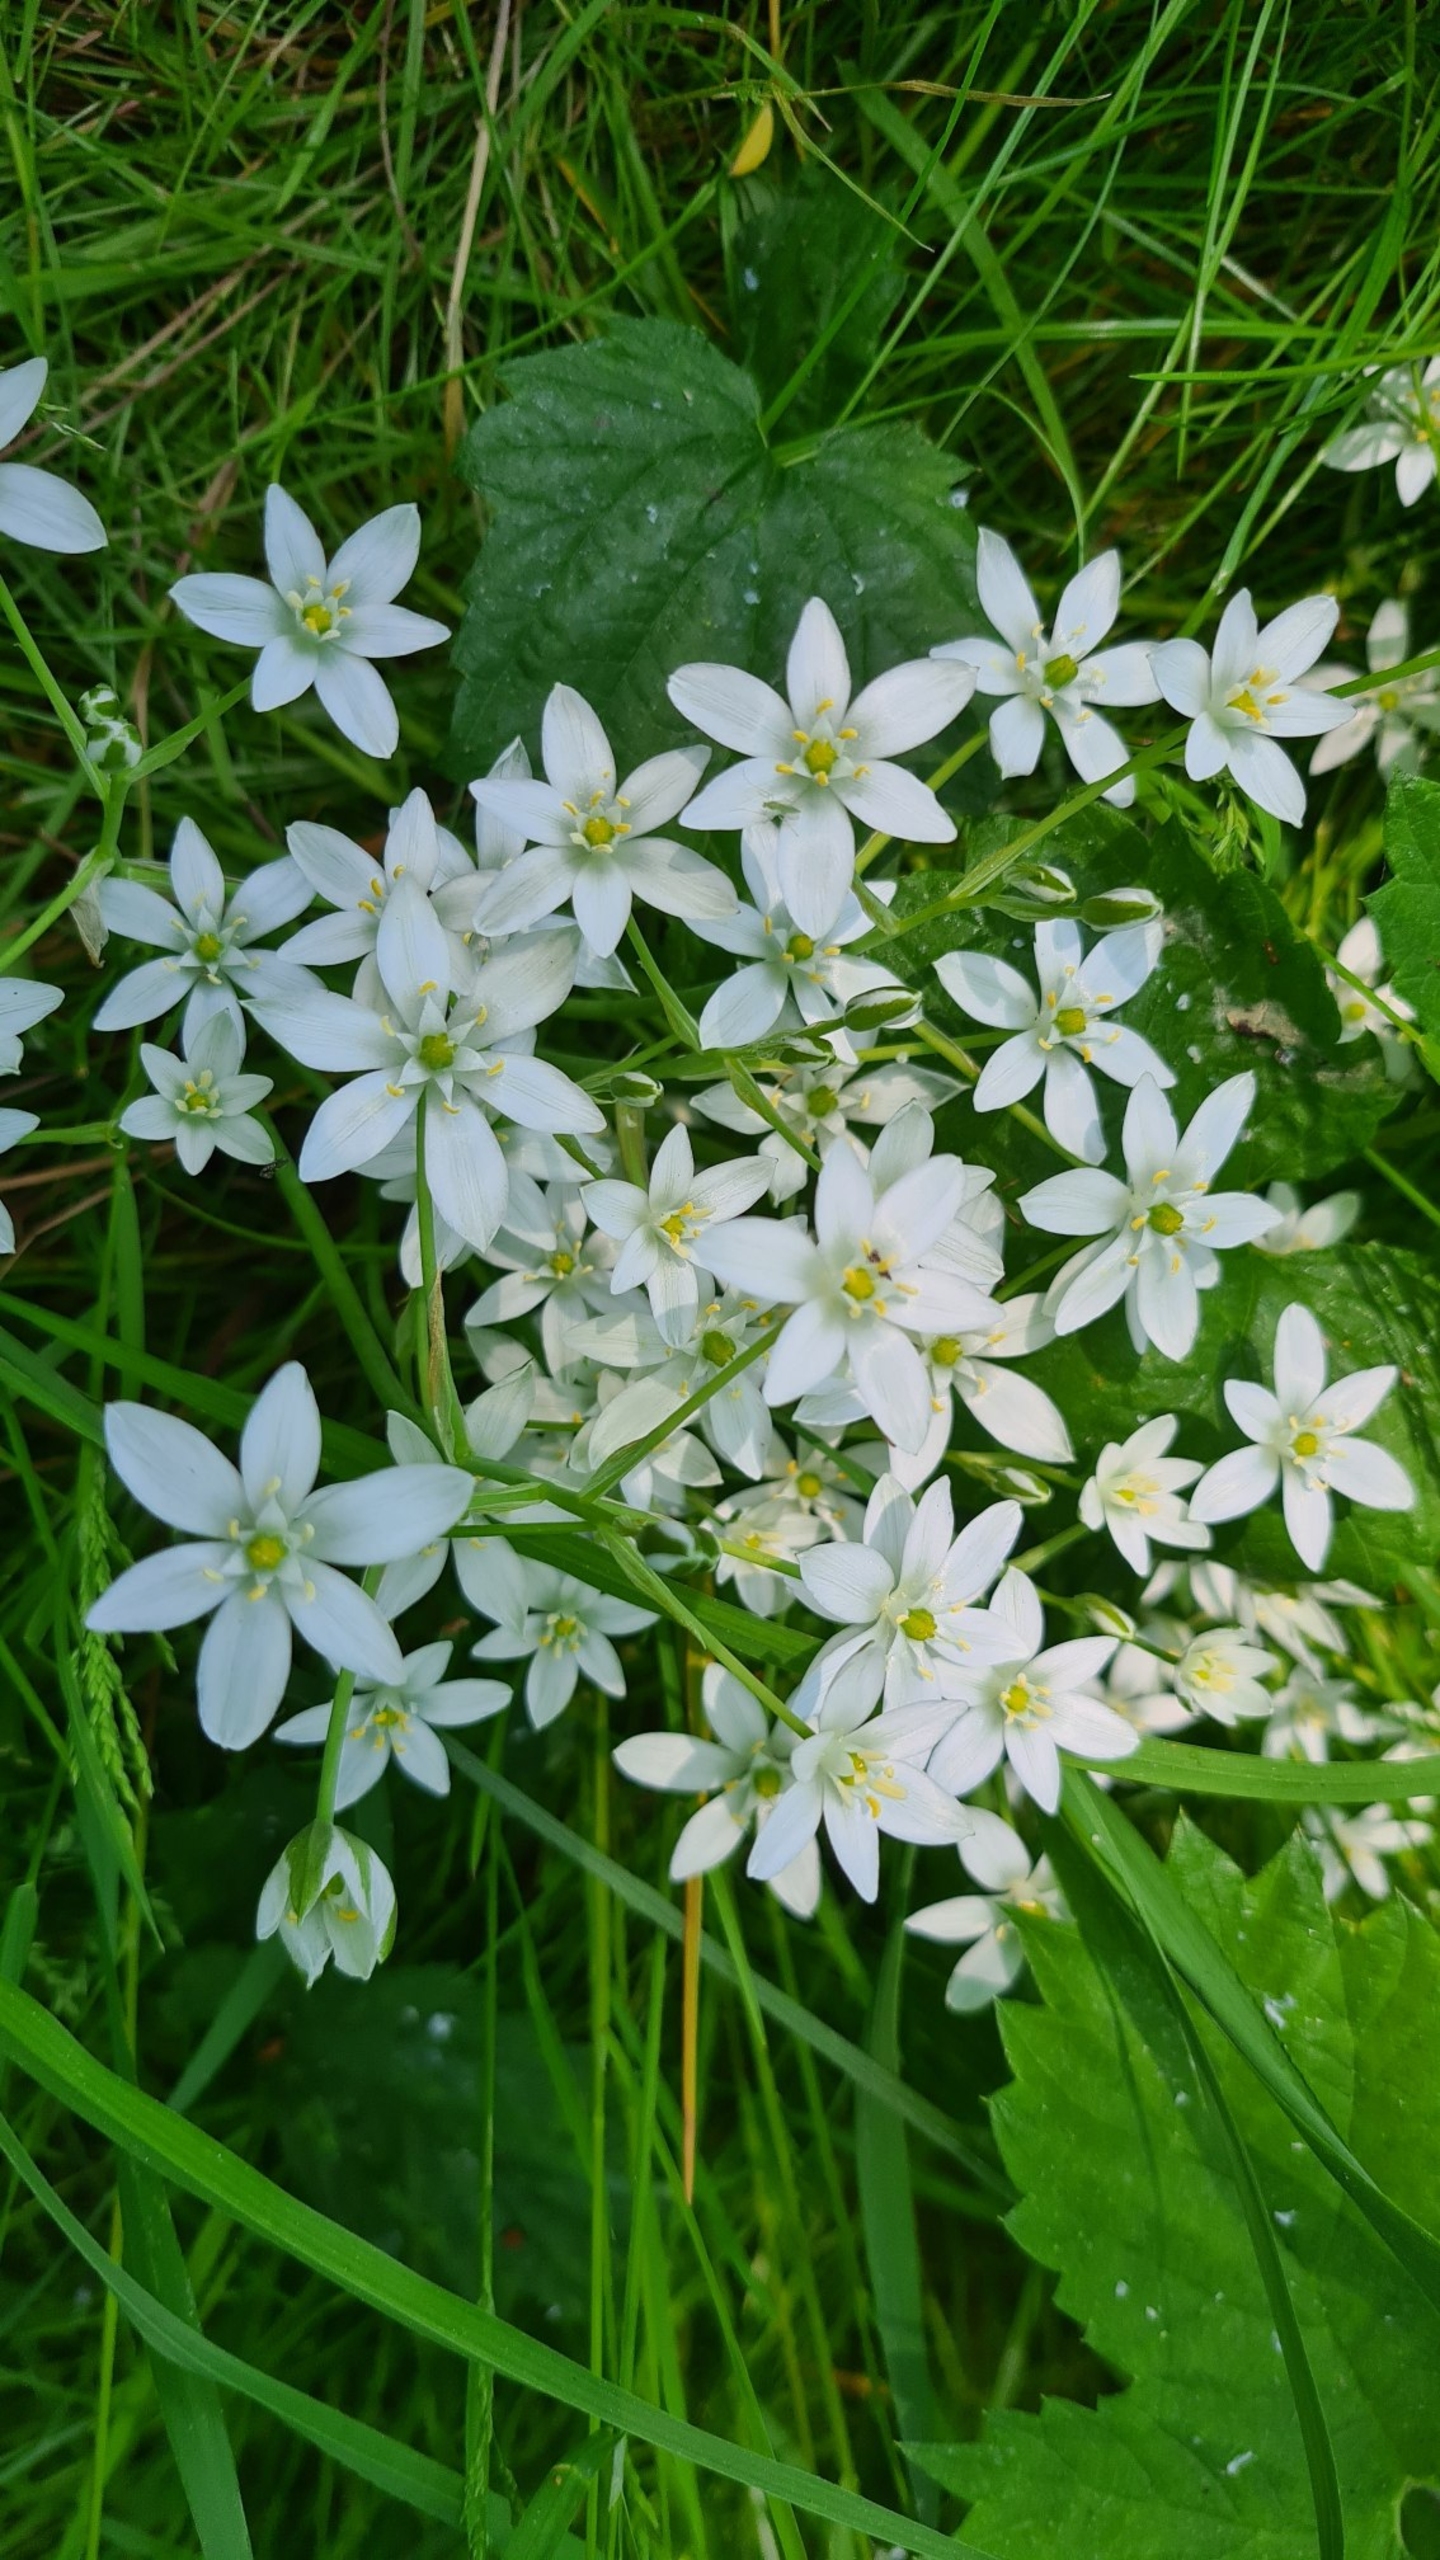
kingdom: Plantae
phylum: Tracheophyta
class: Liliopsida
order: Asparagales
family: Asparagaceae
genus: Ornithogalum
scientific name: Ornithogalum umbellatum
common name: Kost-fuglemælk
